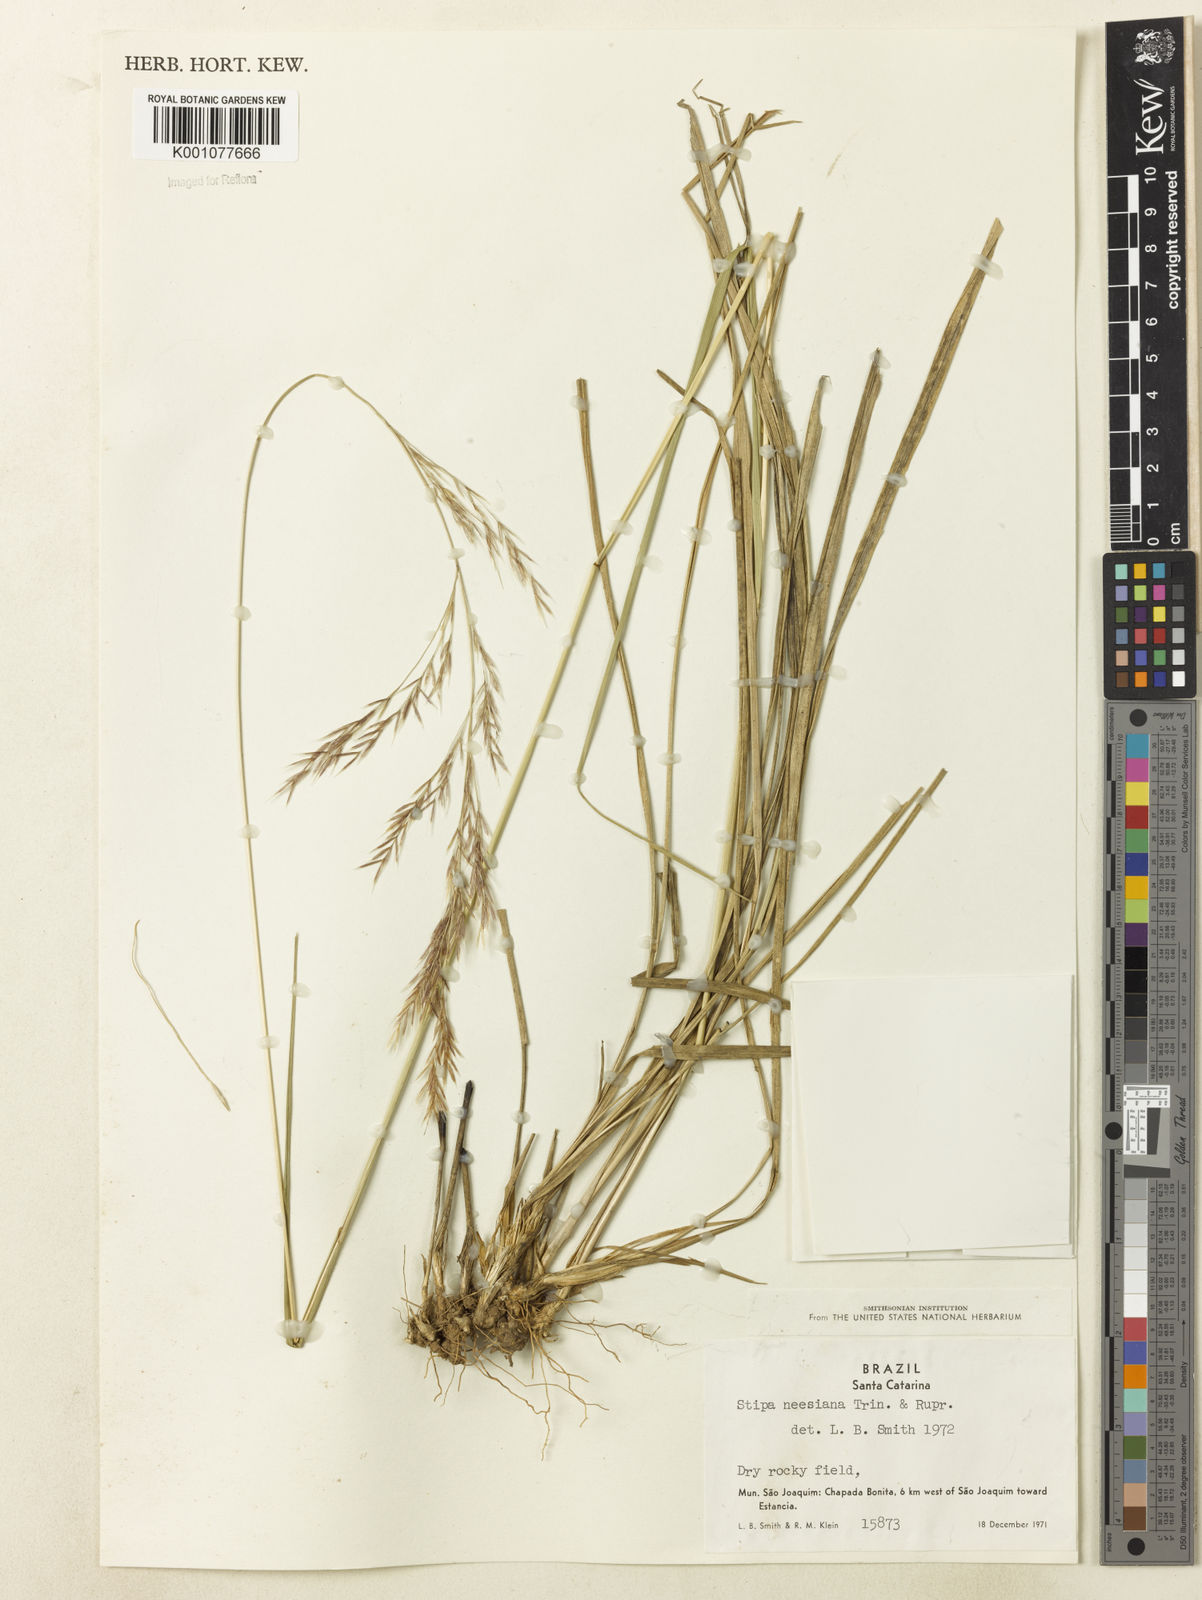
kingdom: Plantae
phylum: Tracheophyta
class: Liliopsida
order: Poales
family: Poaceae
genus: Nassella
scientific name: Nassella neesiana
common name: American needle-grass
